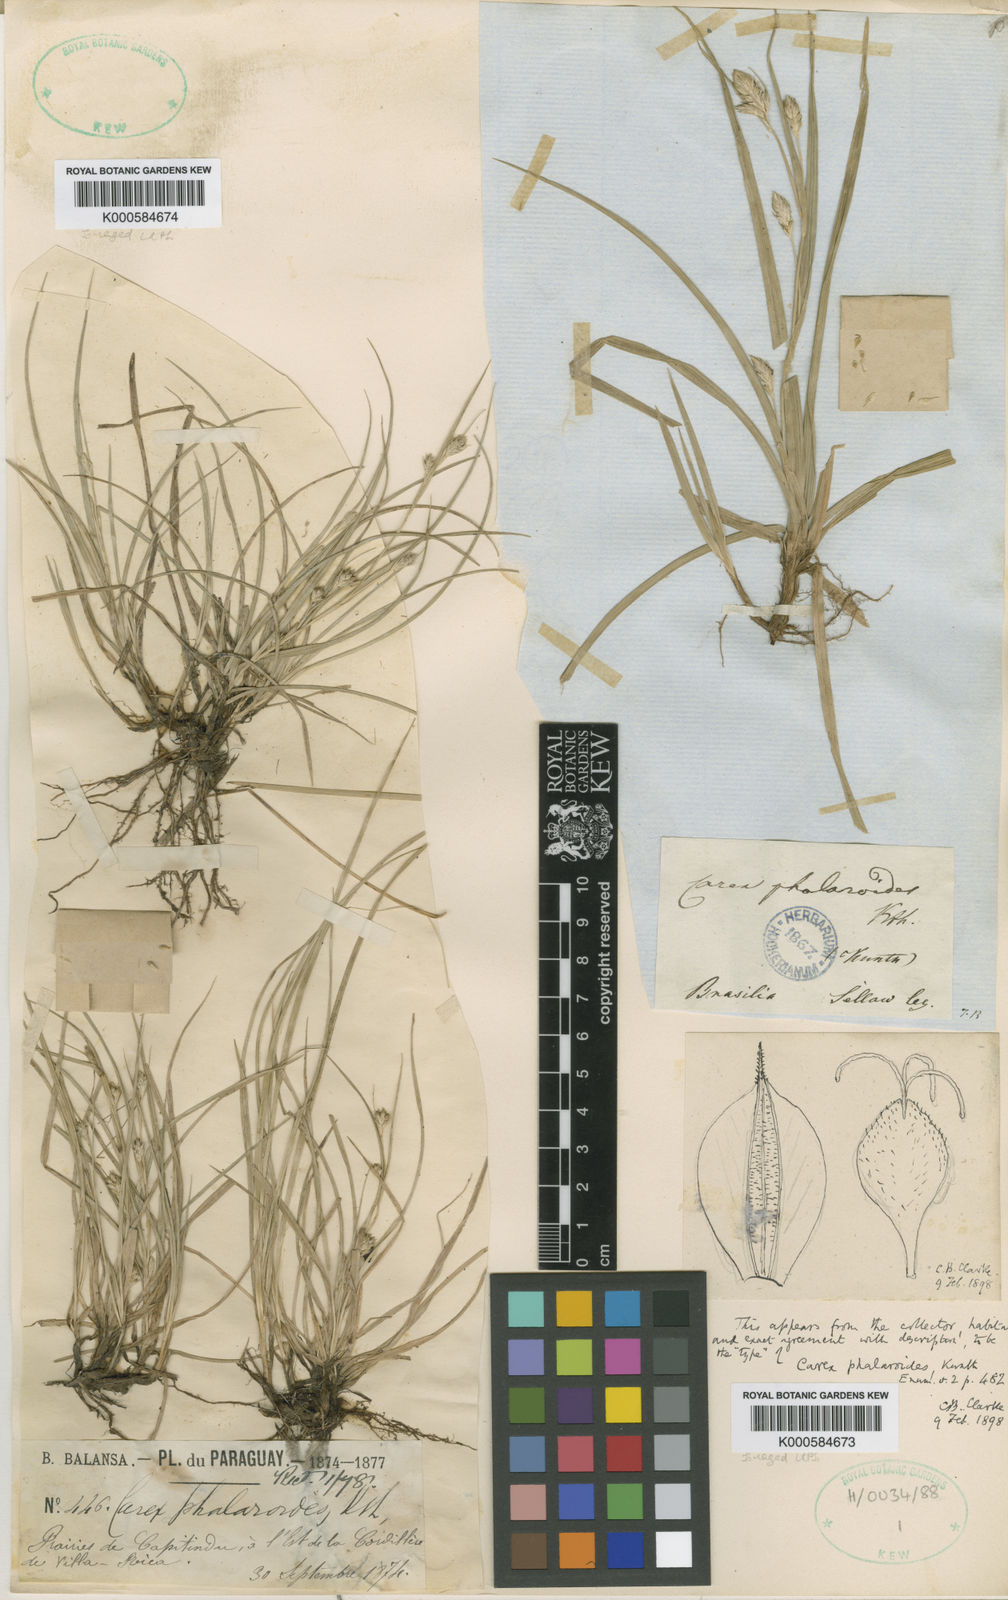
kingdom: Plantae
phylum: Tracheophyta
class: Liliopsida
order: Poales
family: Cyperaceae
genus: Carex
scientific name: Carex phalaroides
